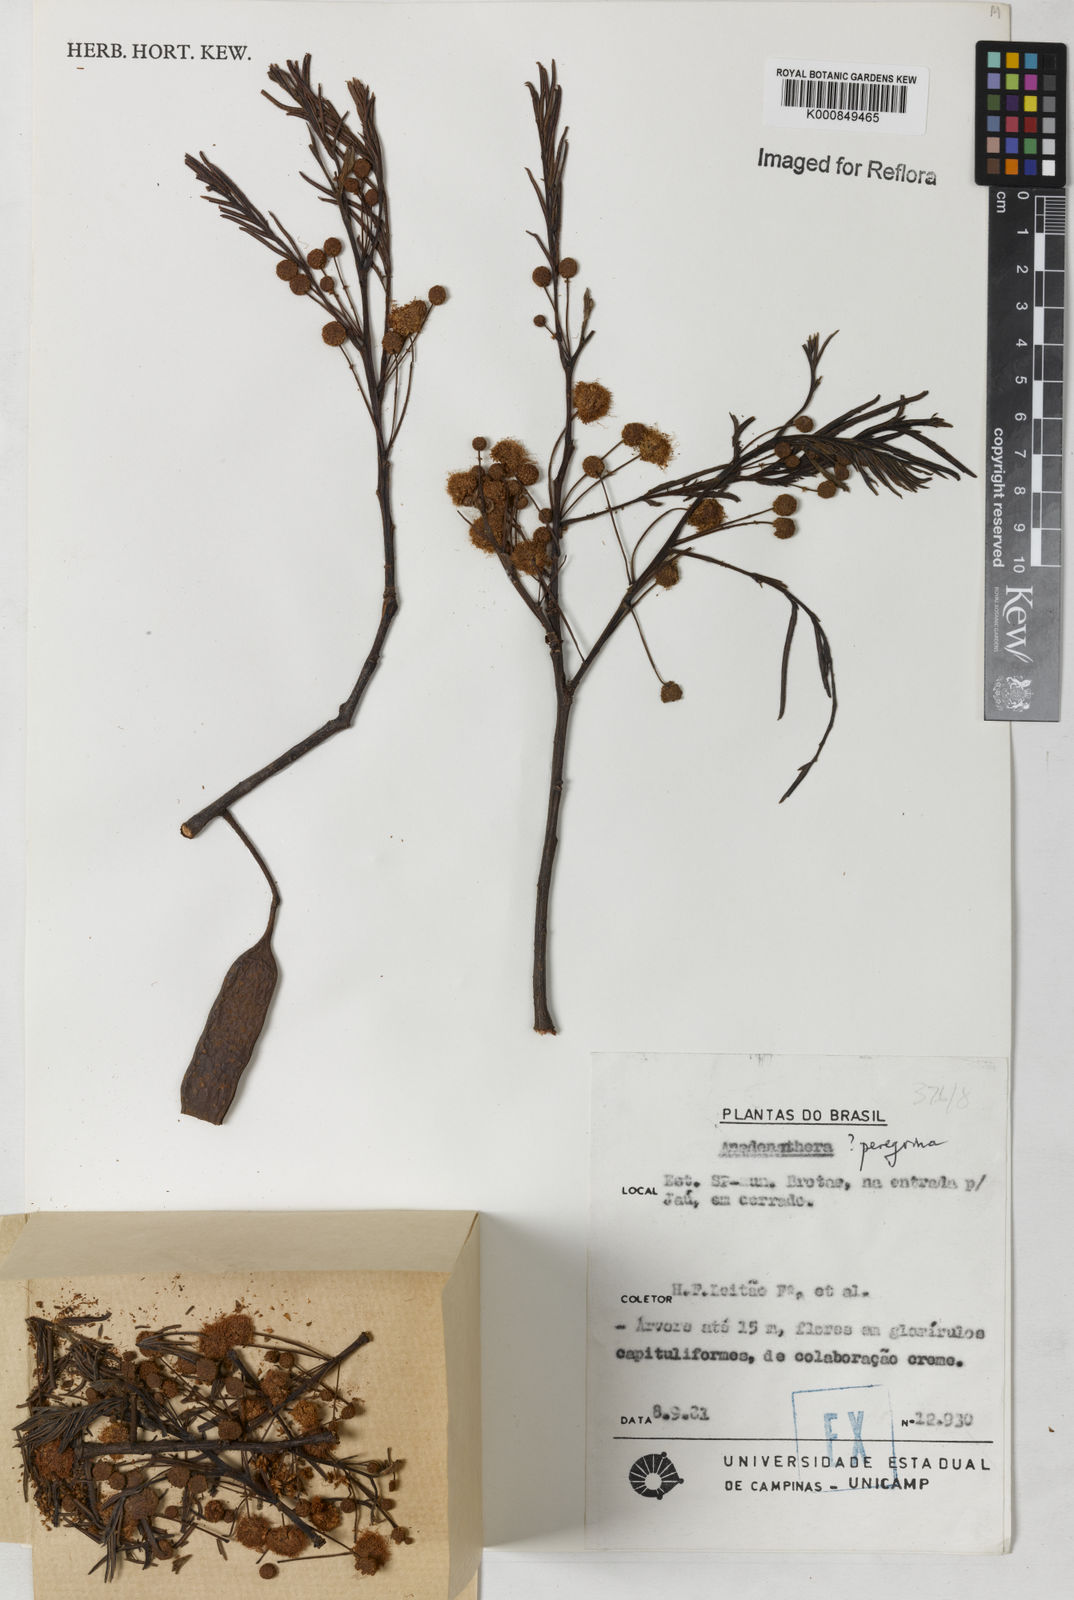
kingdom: Plantae
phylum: Tracheophyta
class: Magnoliopsida
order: Fabales
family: Fabaceae
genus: Anadenanthera
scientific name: Anadenanthera peregrina
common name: Cohoba
